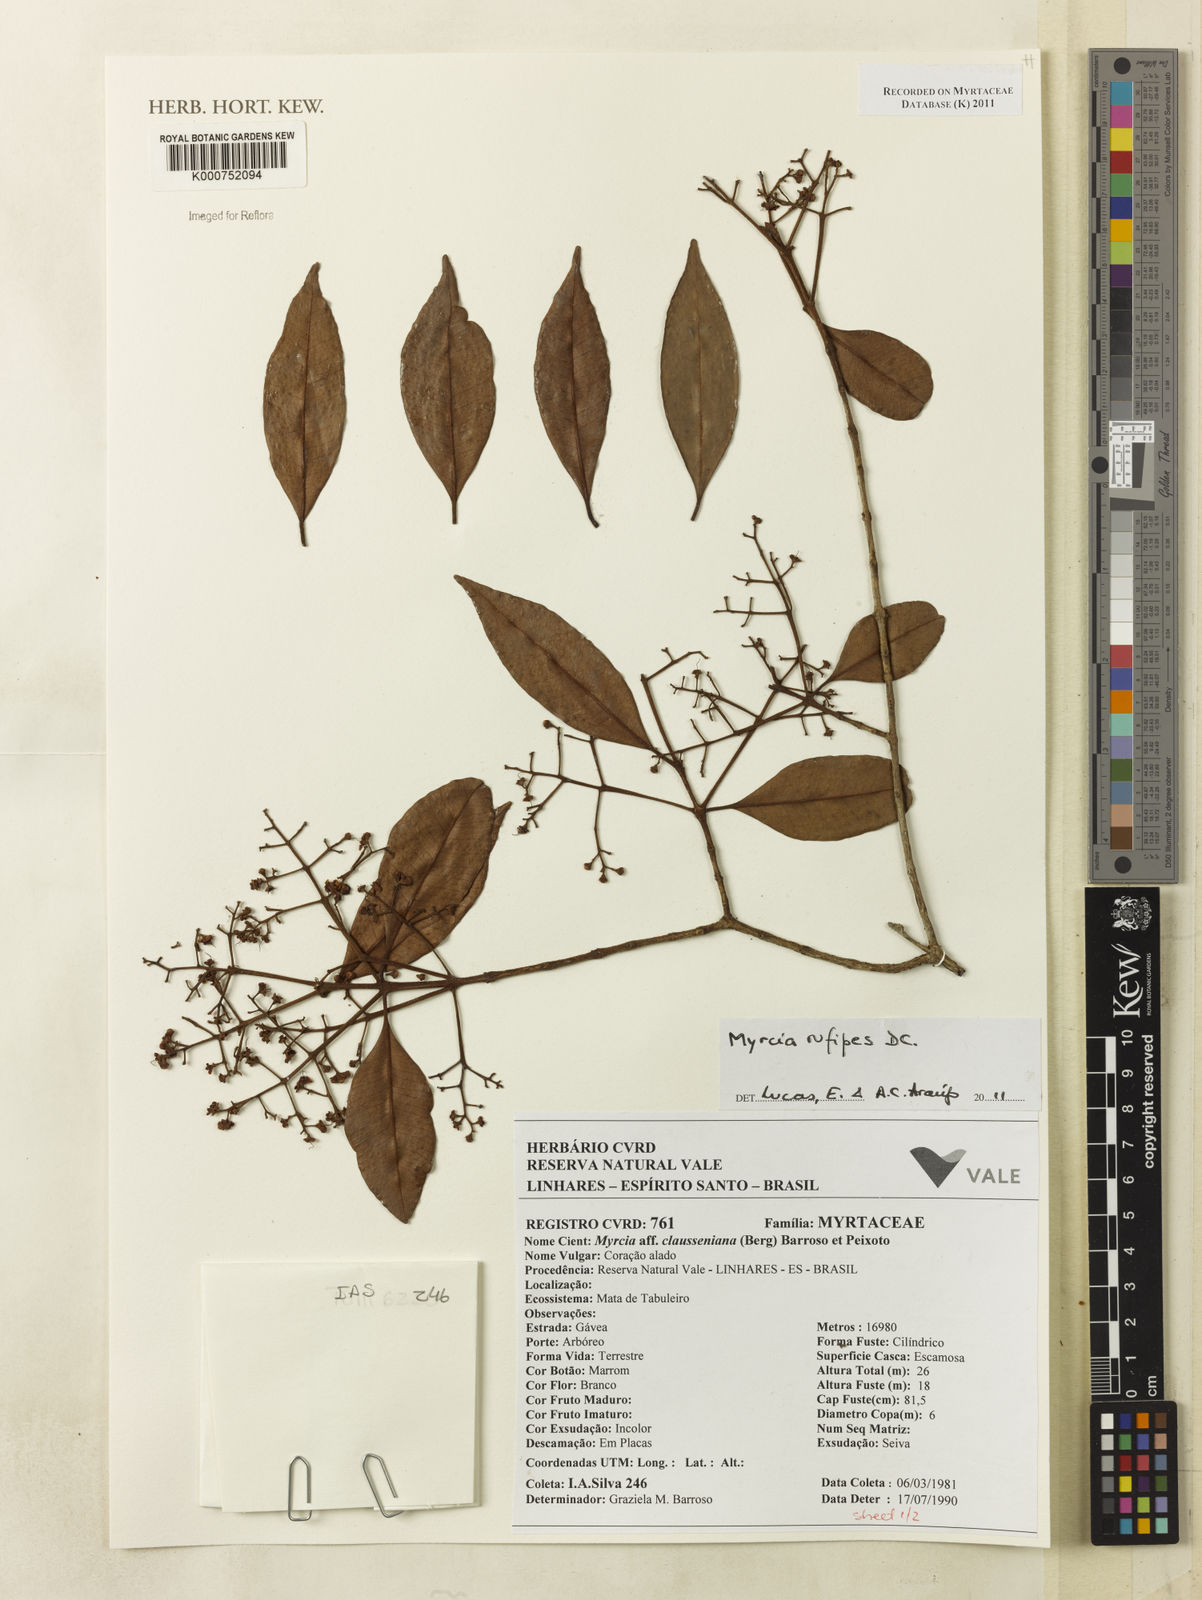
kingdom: Plantae
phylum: Tracheophyta
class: Magnoliopsida
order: Myrtales
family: Myrtaceae
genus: Myrcia
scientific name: Myrcia rufipes
